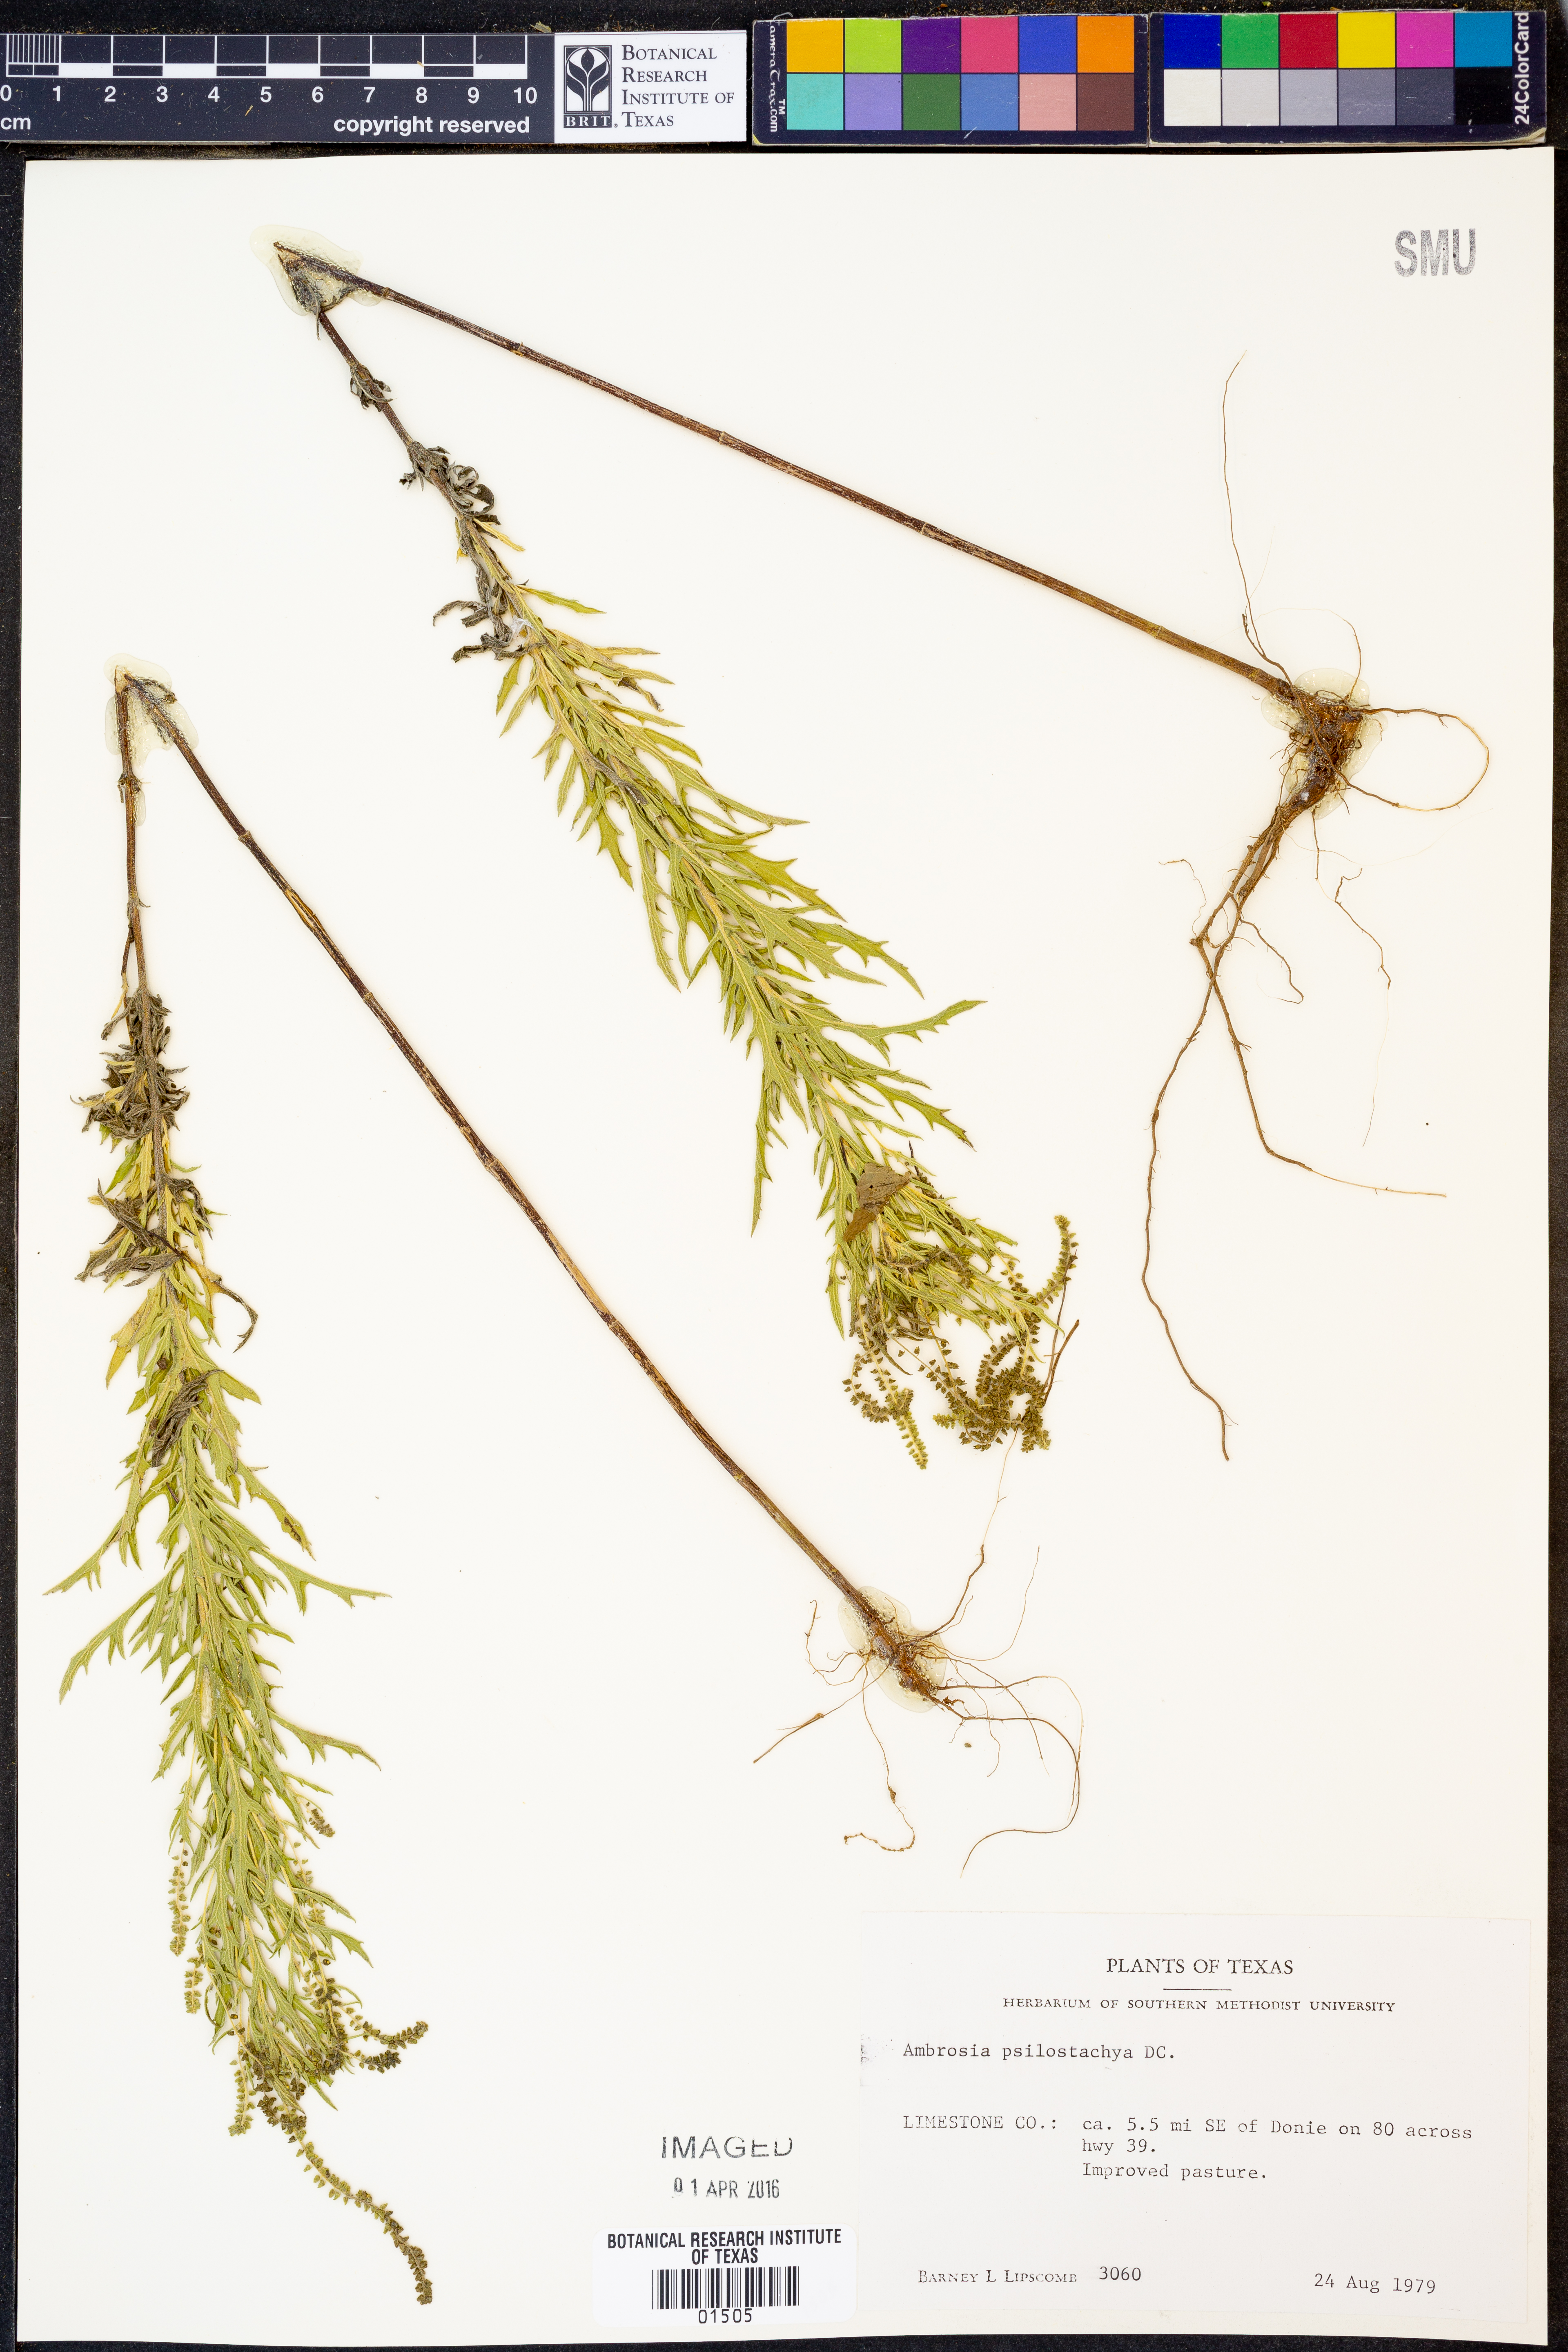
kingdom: Plantae
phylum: Tracheophyta
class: Magnoliopsida
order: Asterales
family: Asteraceae
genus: Ambrosia
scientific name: Ambrosia psilostachya
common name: Perennial ragweed
